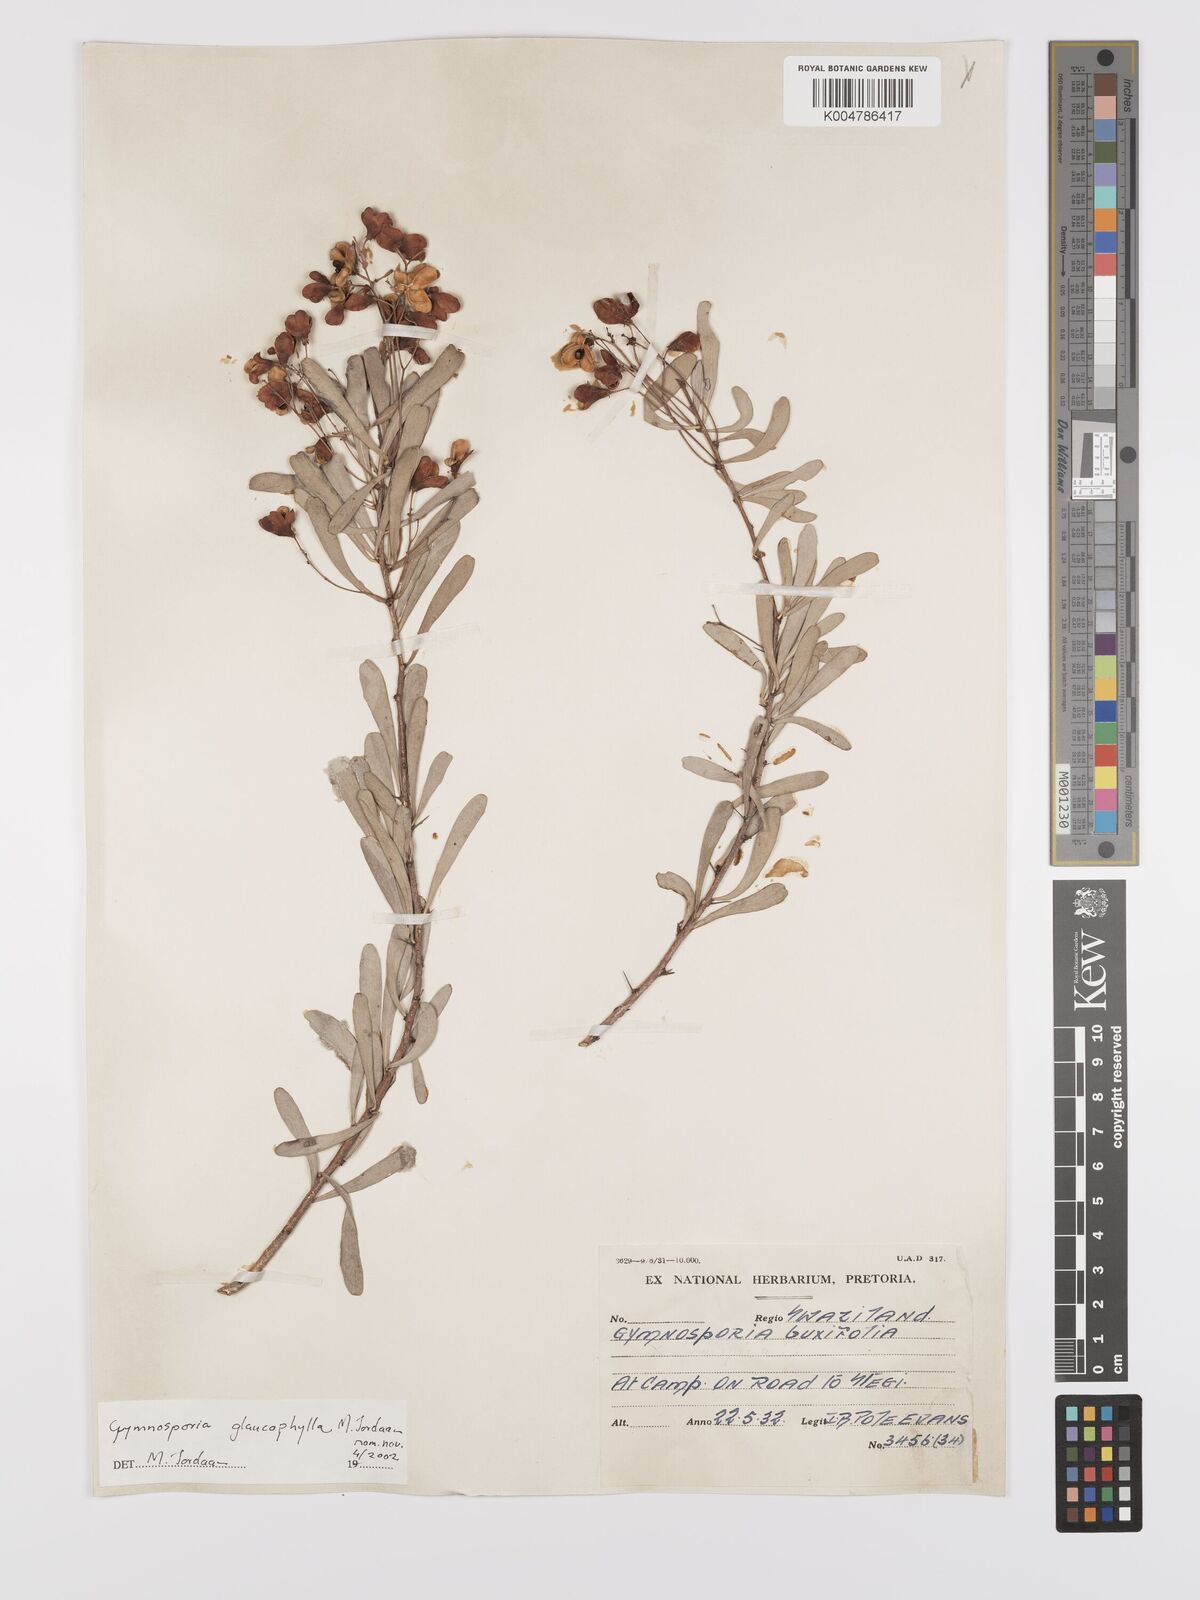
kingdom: Plantae
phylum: Tracheophyta
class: Magnoliopsida
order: Celastrales
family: Celastraceae
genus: Gymnosporia
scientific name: Gymnosporia glaucophylla
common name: Blue spike-thorn
